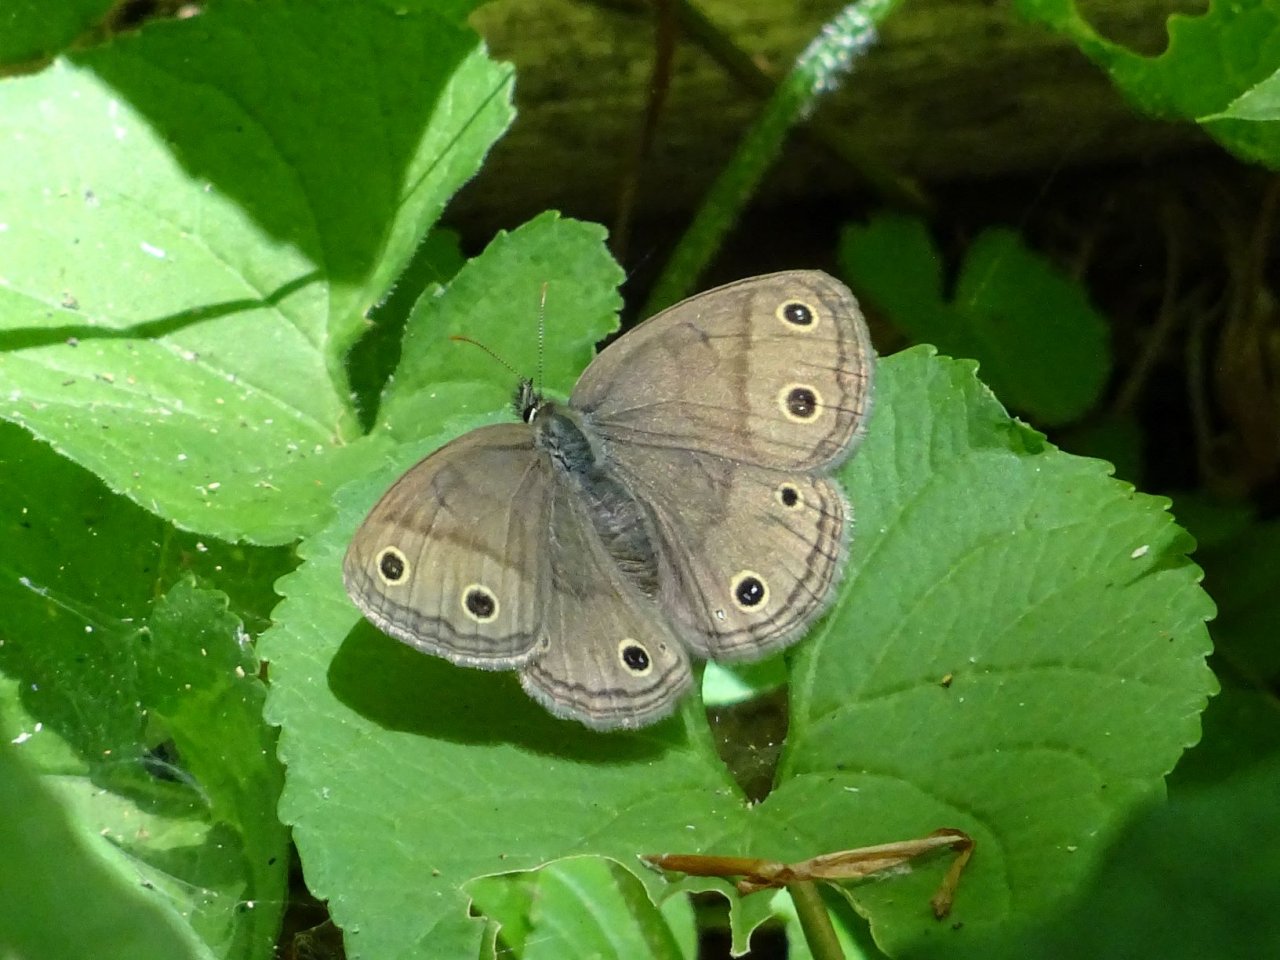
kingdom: Animalia
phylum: Arthropoda
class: Insecta
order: Lepidoptera
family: Nymphalidae
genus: Euptychia
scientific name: Euptychia cymela
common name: Little Wood Satyr
